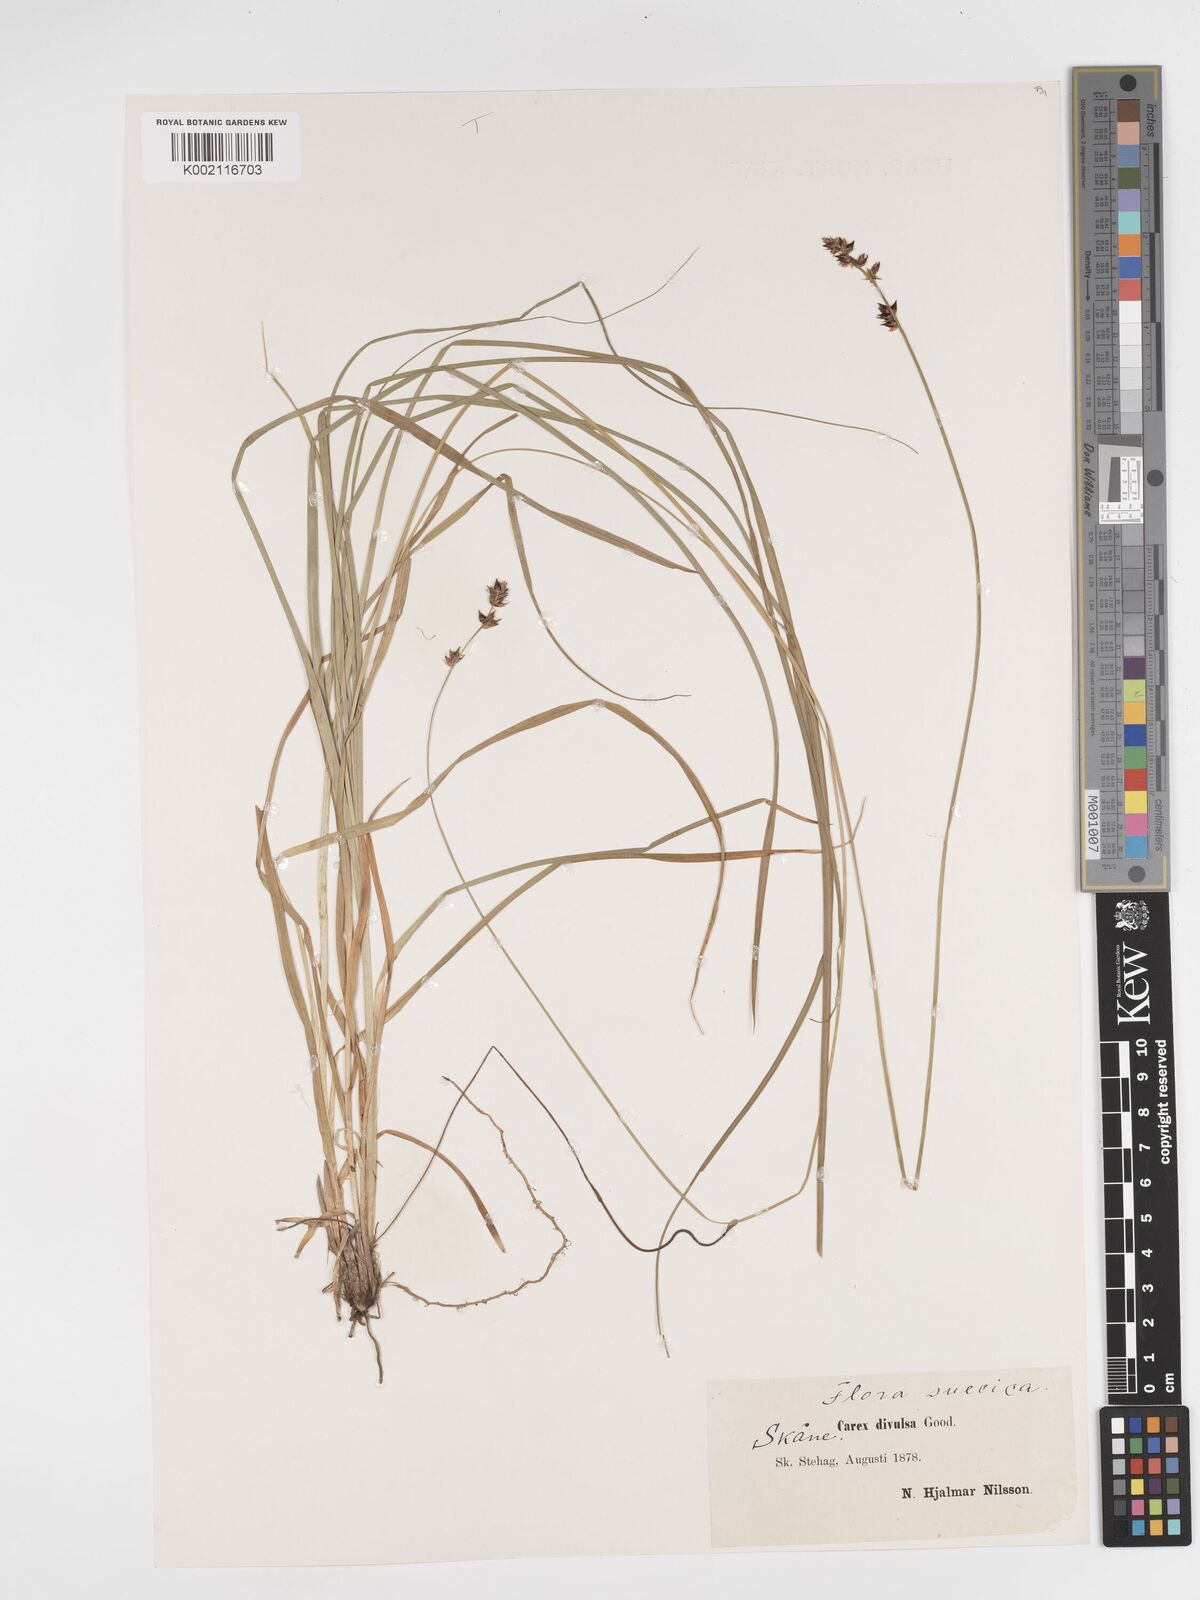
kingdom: Plantae
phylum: Tracheophyta
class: Liliopsida
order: Poales
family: Cyperaceae
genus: Carex
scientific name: Carex divulsa
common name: Grassland sedge
